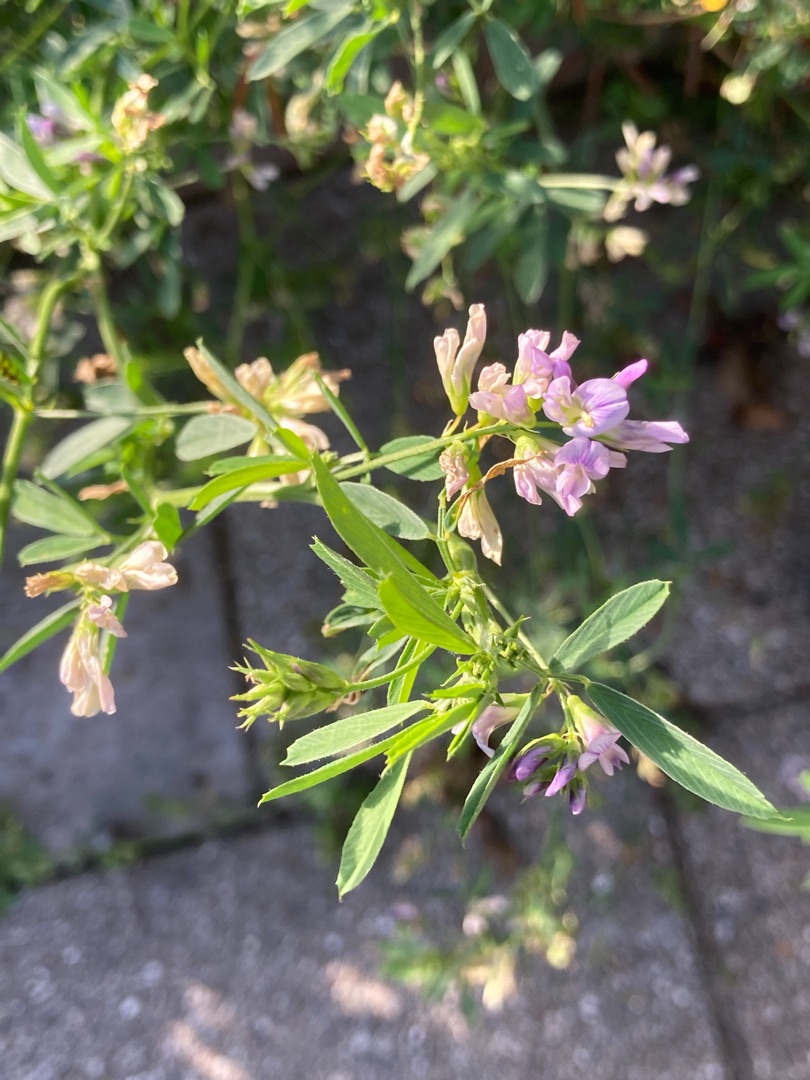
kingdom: Plantae
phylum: Tracheophyta
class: Magnoliopsida
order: Fabales
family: Fabaceae
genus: Medicago
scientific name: Medicago sativa
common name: Lucerne
